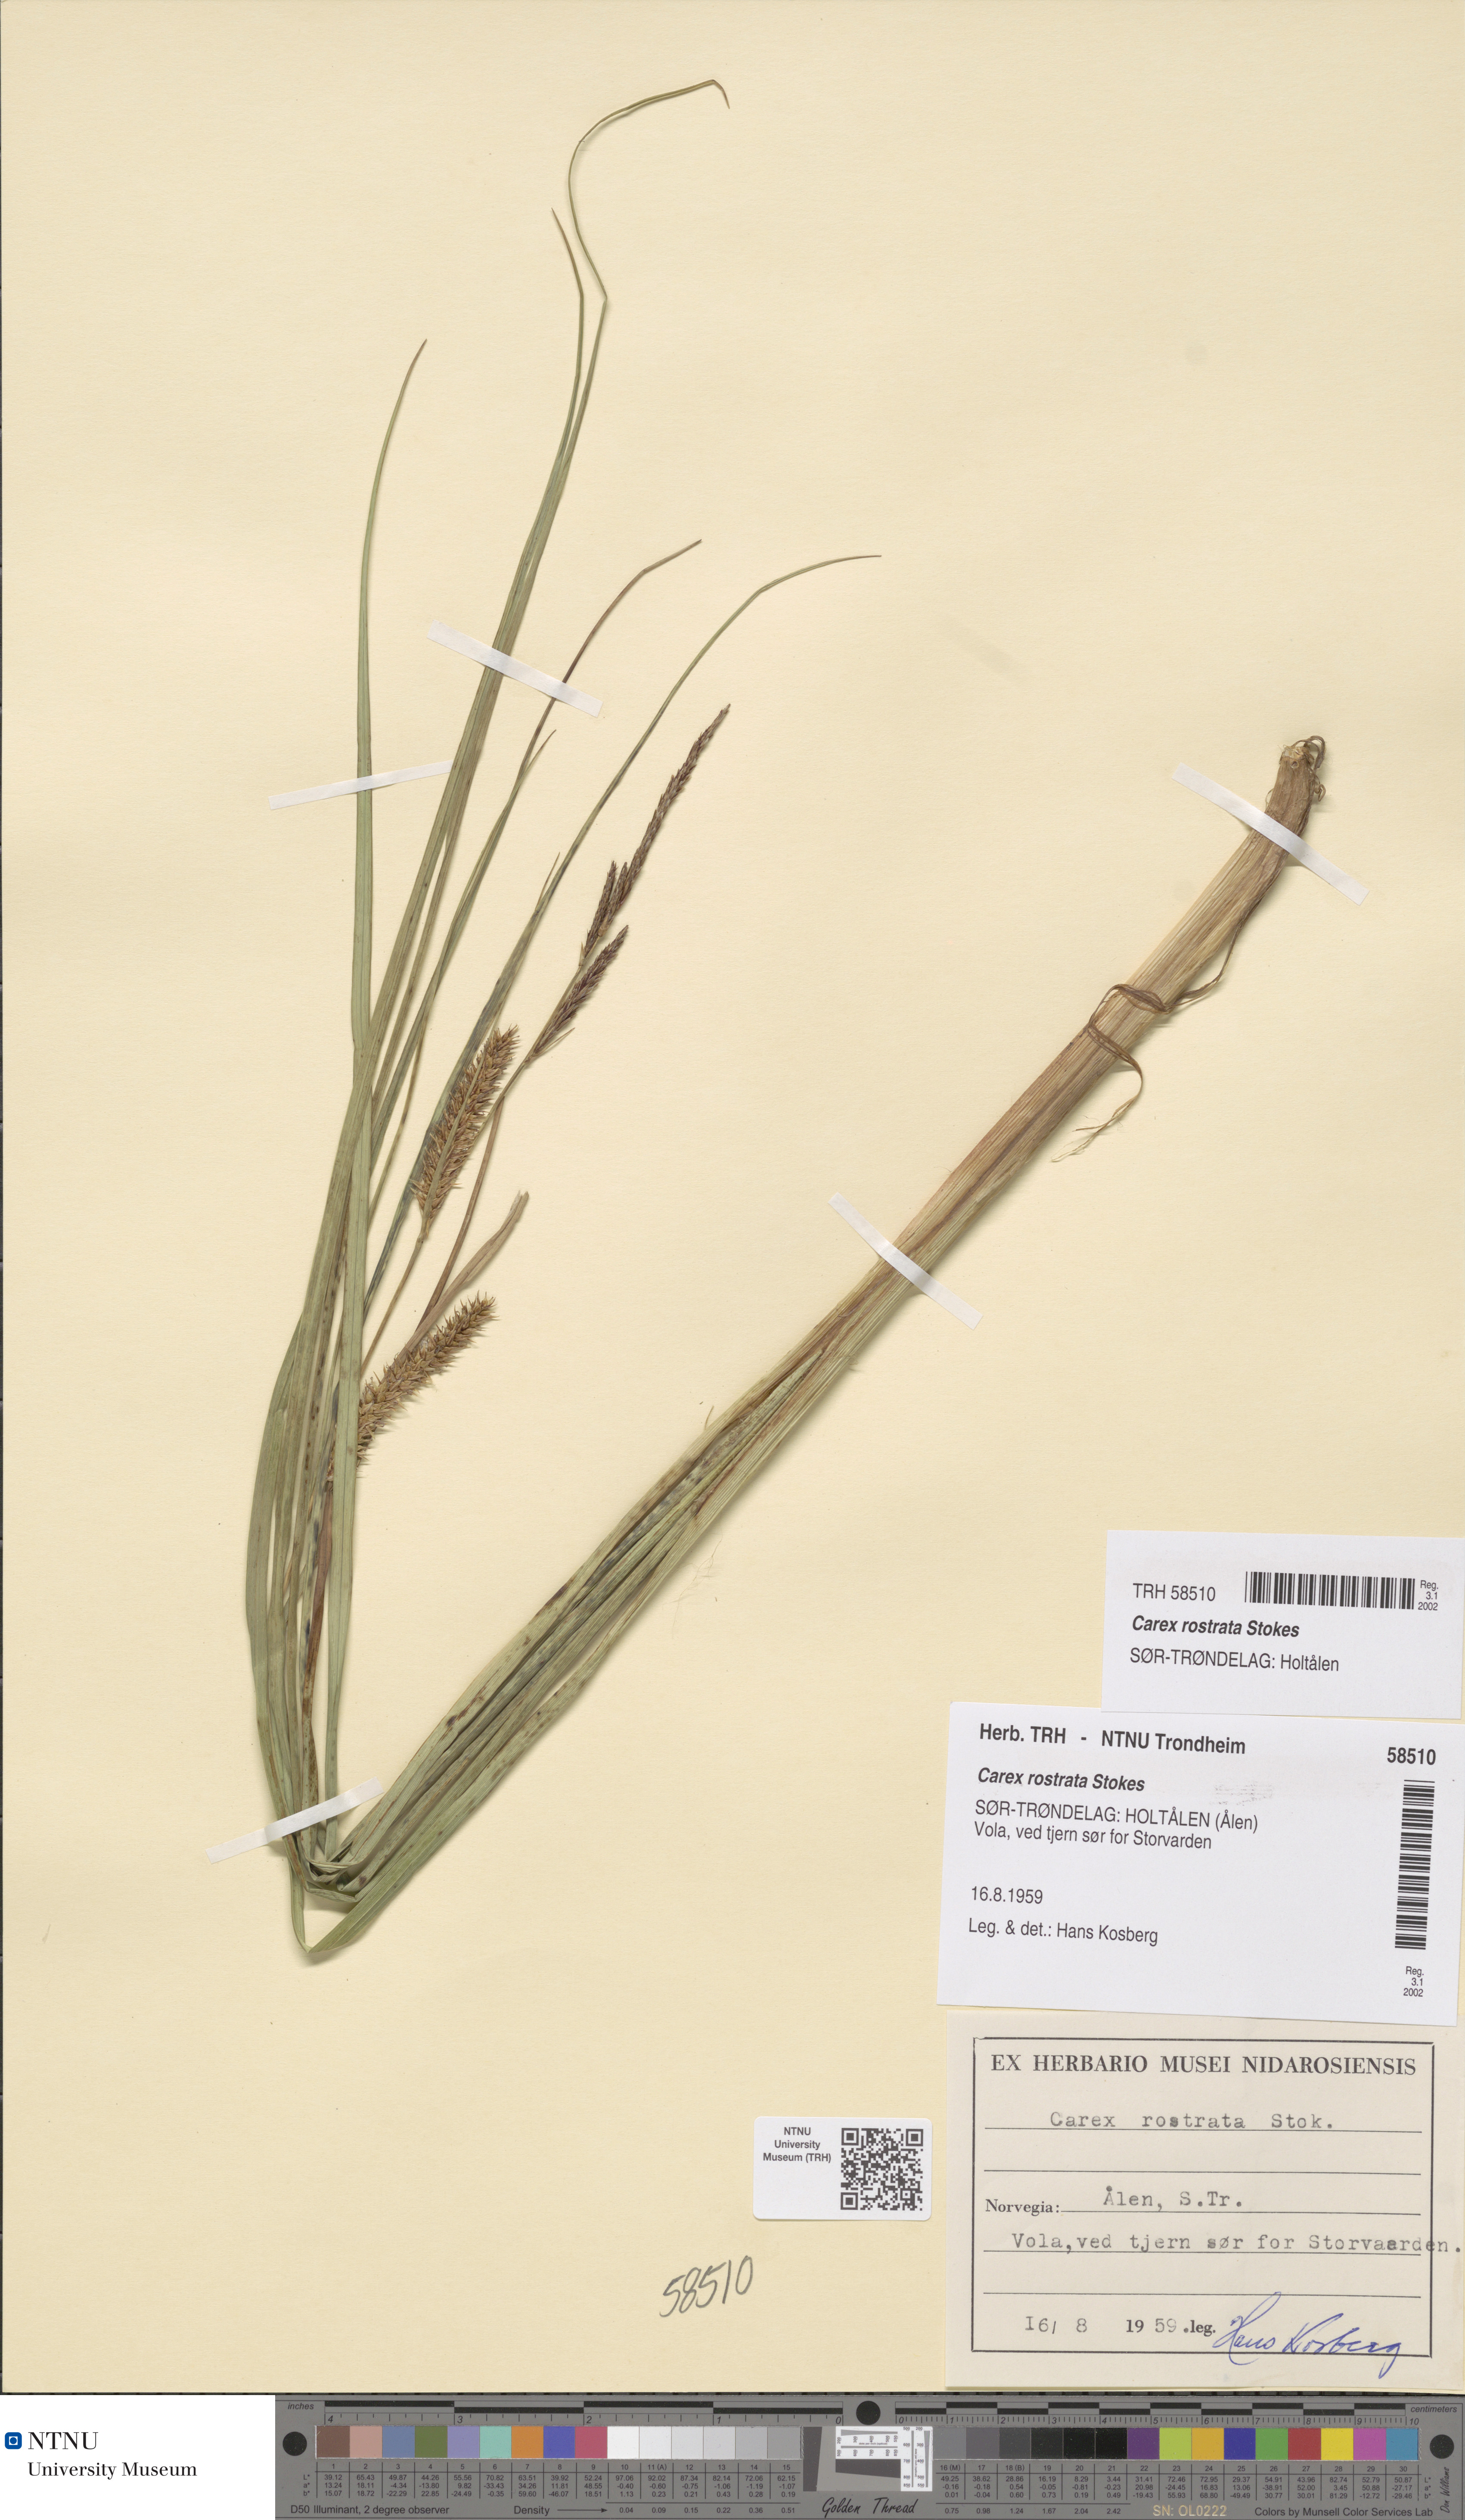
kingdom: Plantae
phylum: Tracheophyta
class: Liliopsida
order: Poales
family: Cyperaceae
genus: Carex
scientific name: Carex rostrata
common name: Bottle sedge
